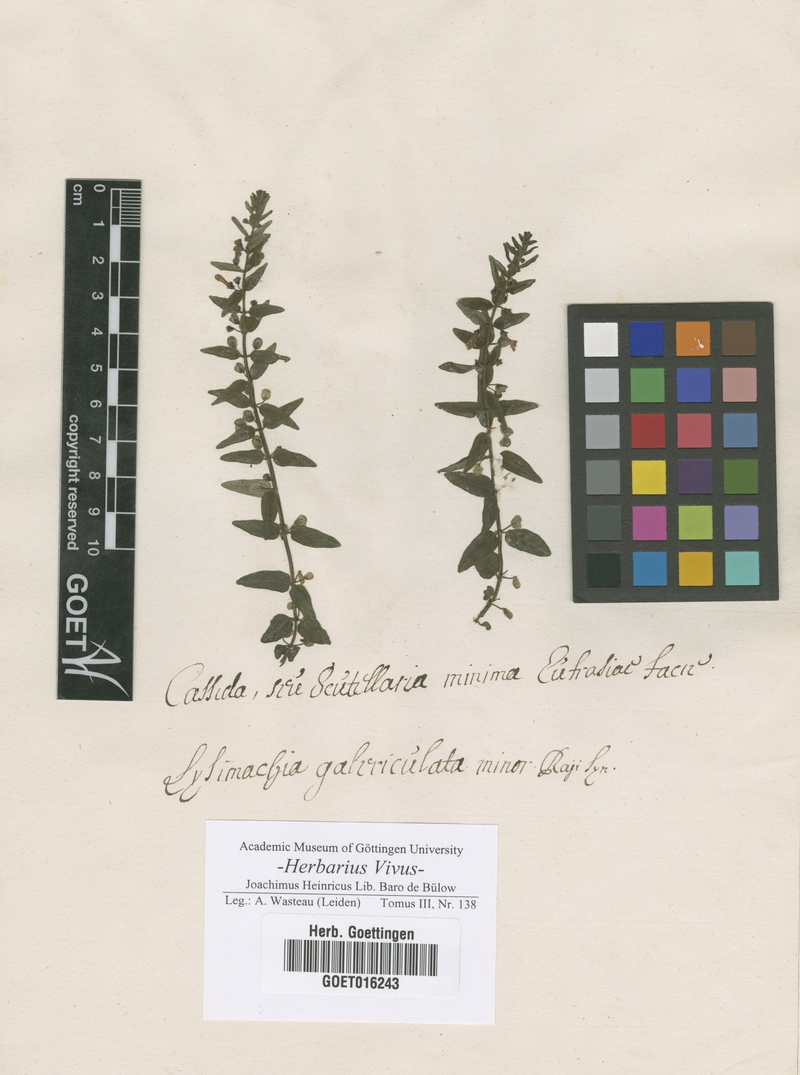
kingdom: Plantae
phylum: Tracheophyta
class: Magnoliopsida
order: Lamiales
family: Lamiaceae
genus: Scutellaria
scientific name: Scutellaria galericulata
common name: Skullcap
